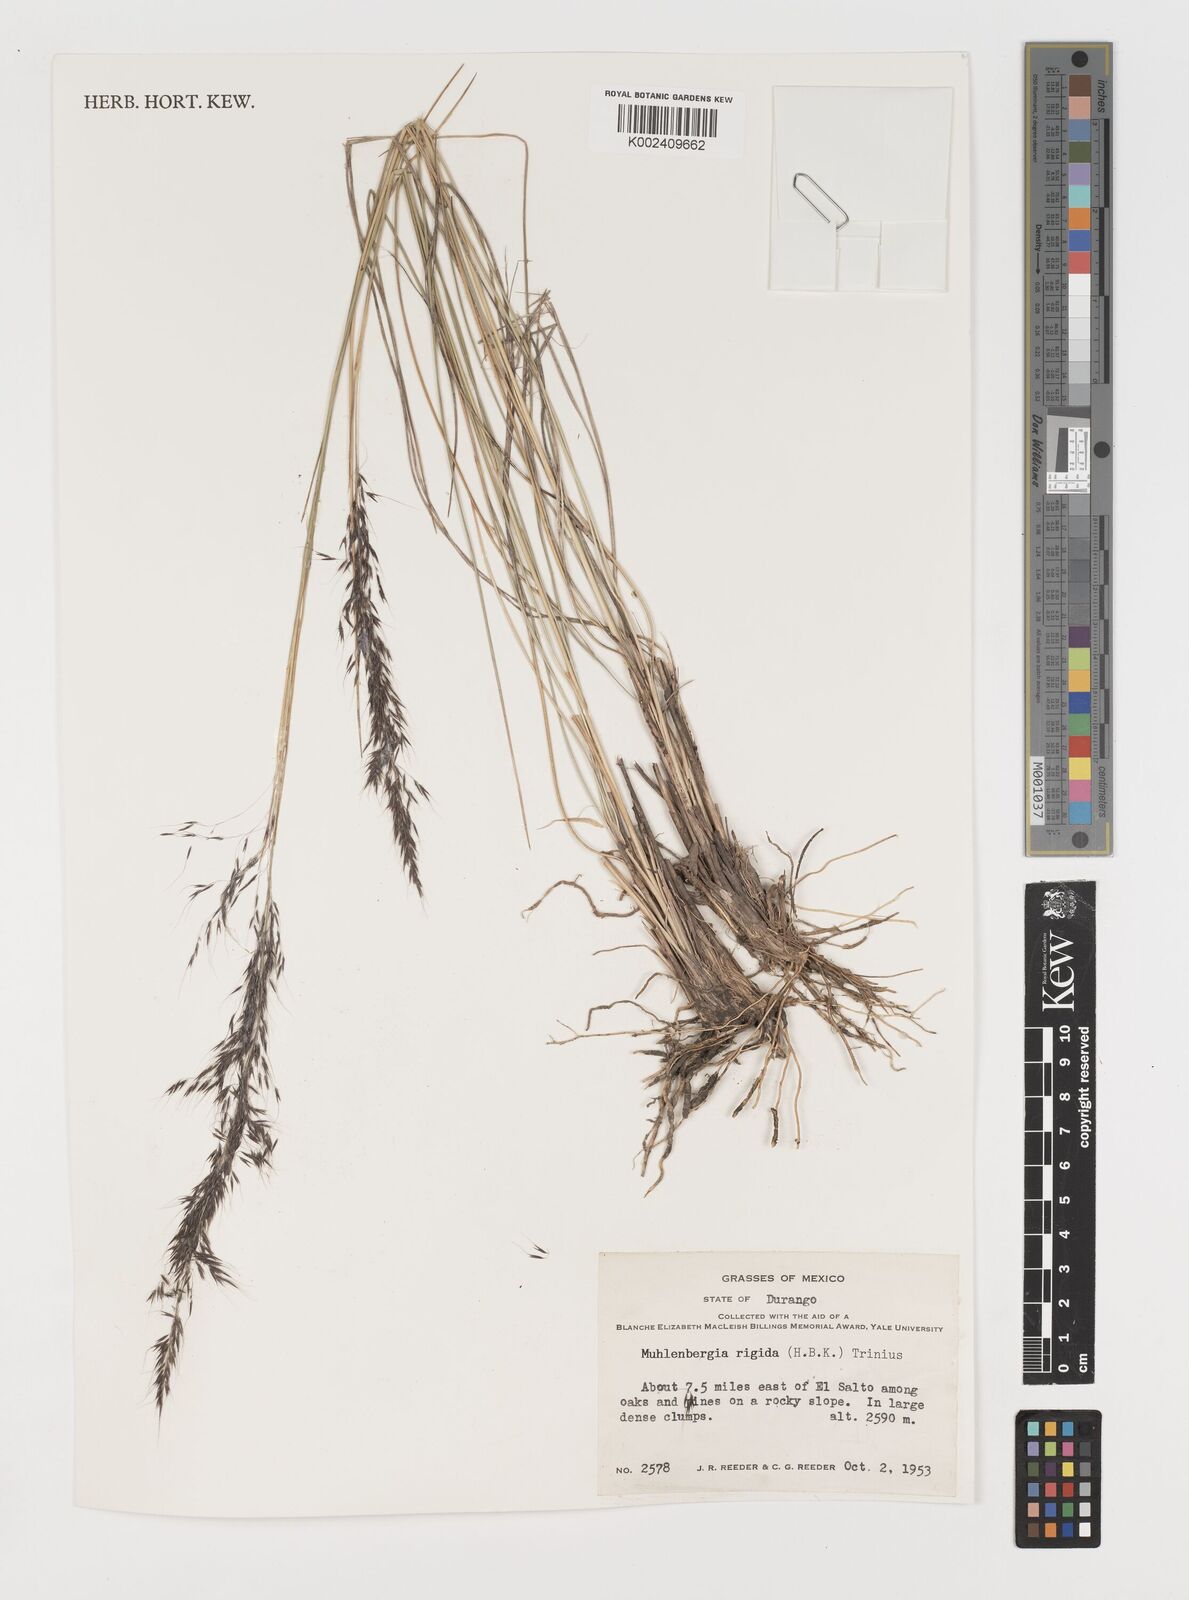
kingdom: Plantae
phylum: Tracheophyta
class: Liliopsida
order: Poales
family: Poaceae
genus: Muhlenbergia
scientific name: Muhlenbergia rigida
